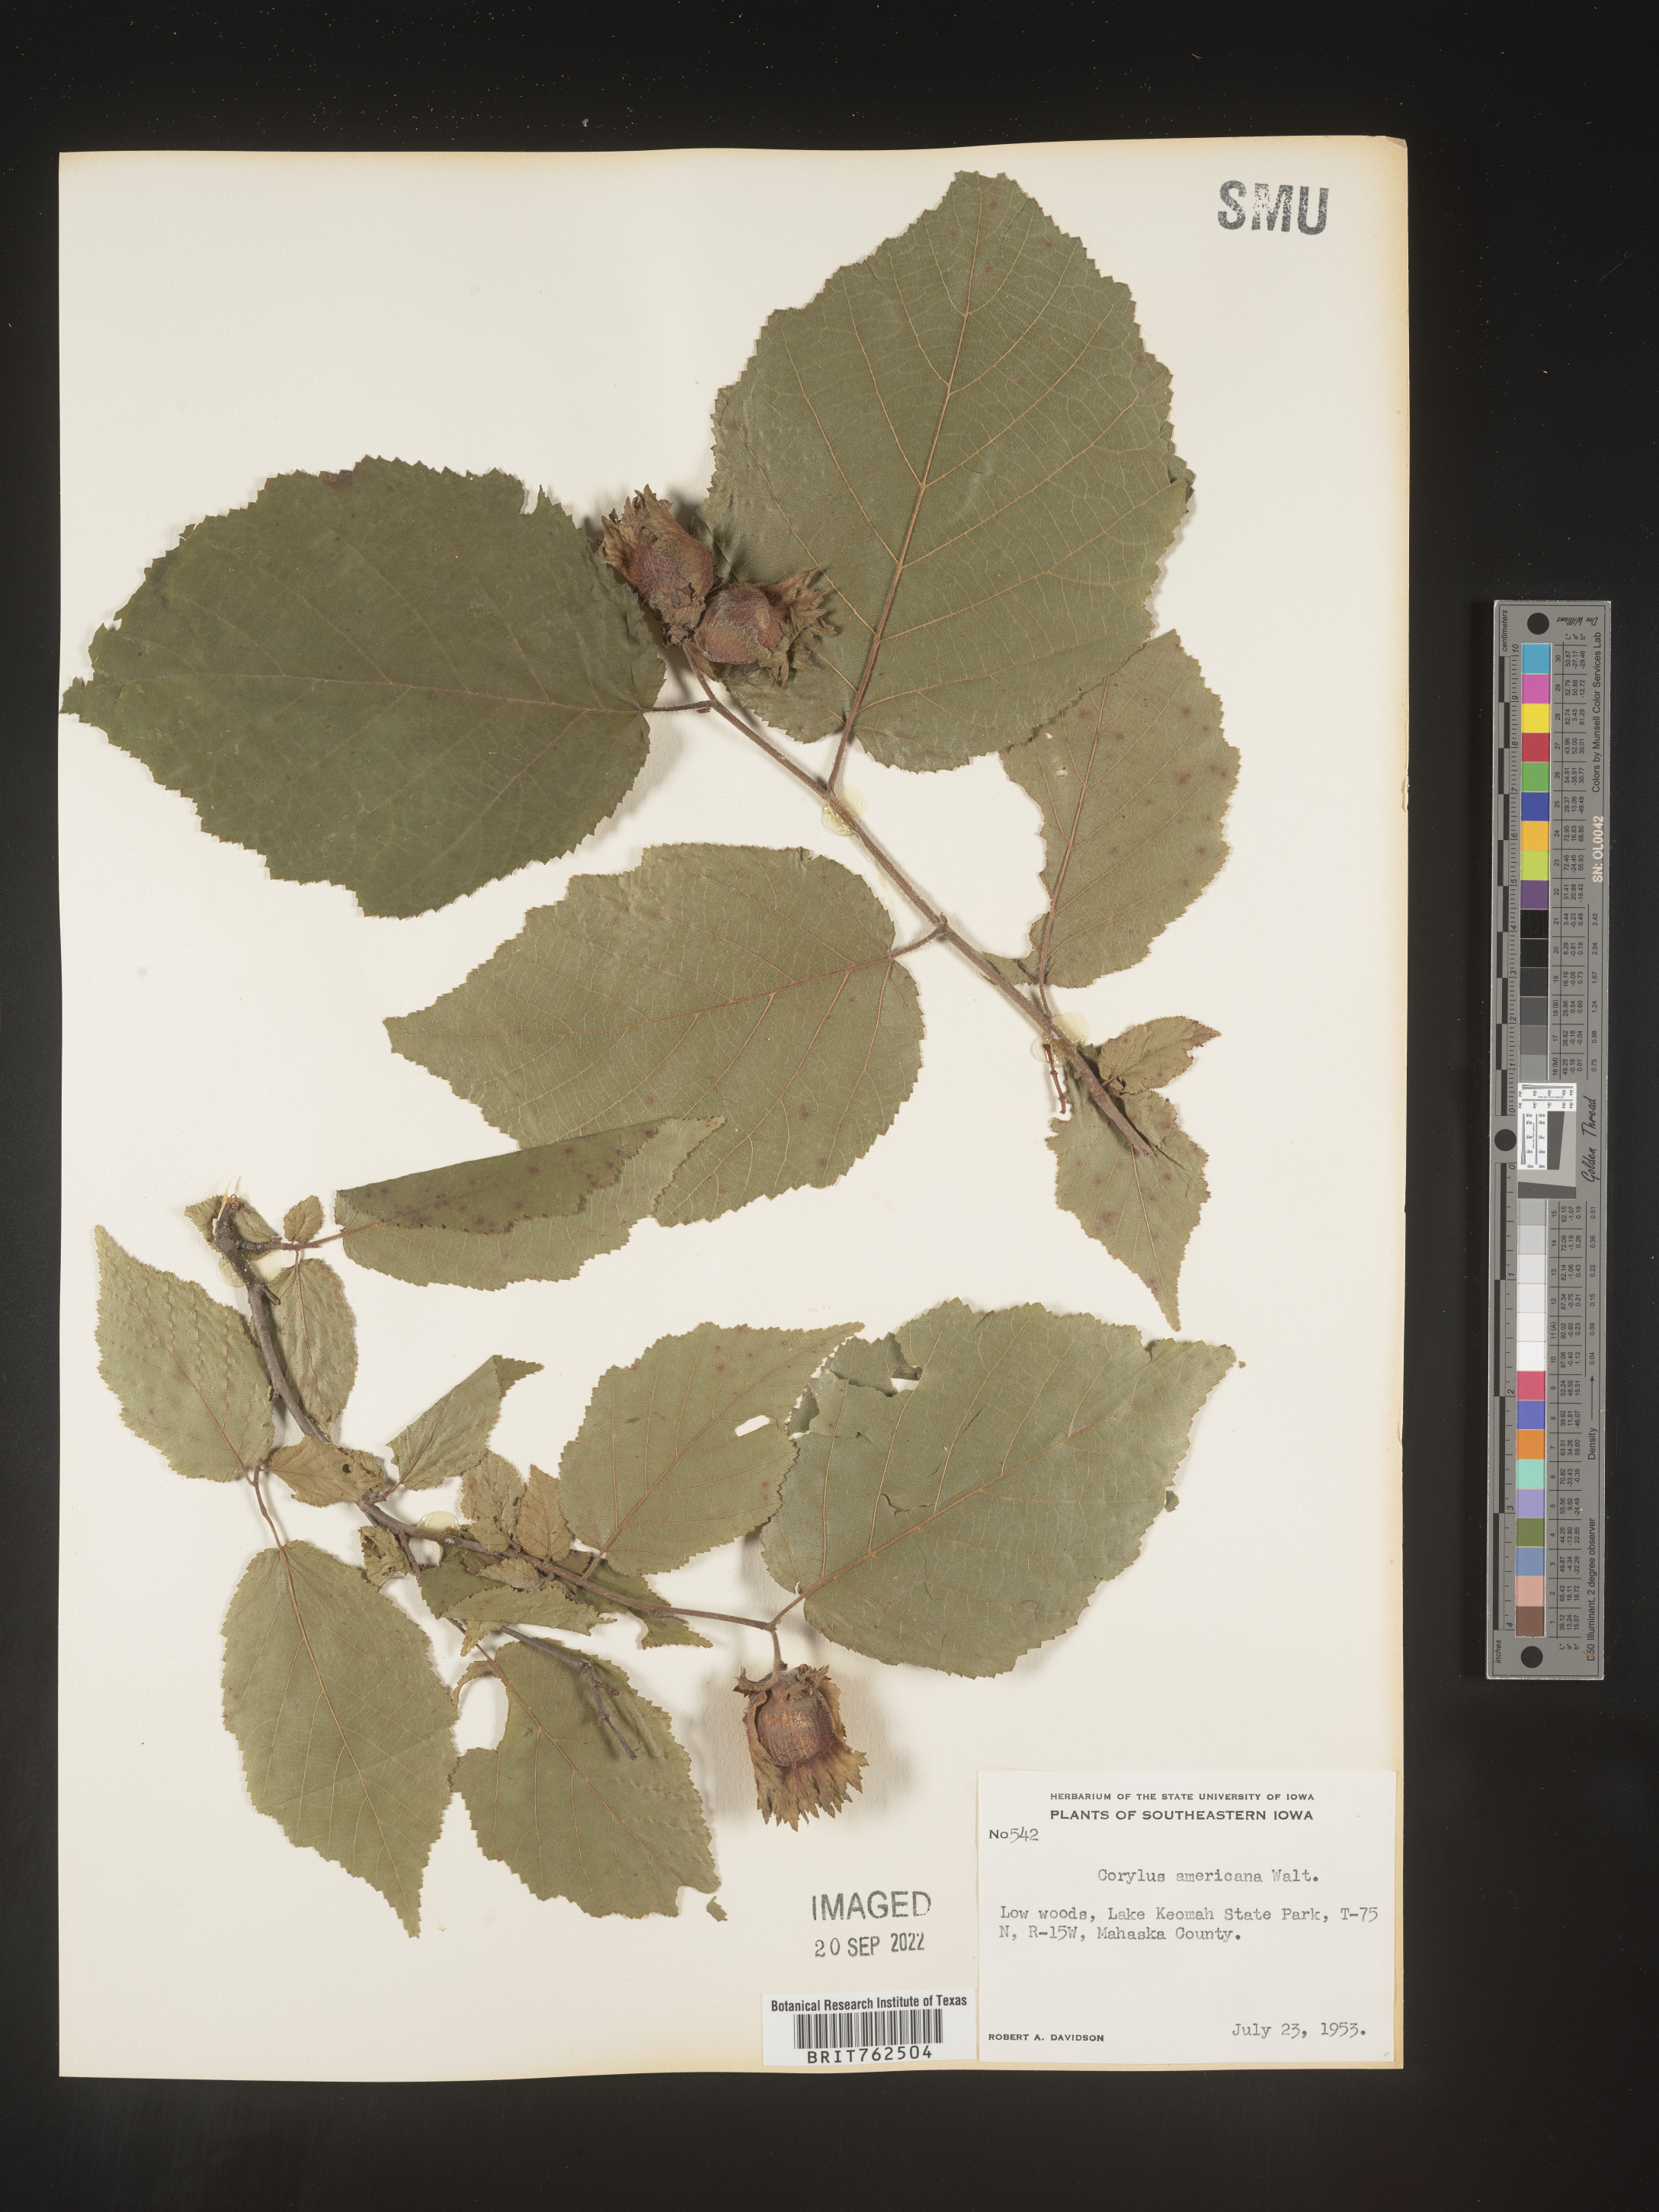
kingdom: Plantae
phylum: Tracheophyta
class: Magnoliopsida
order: Fagales
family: Betulaceae
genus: Corylus
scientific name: Corylus americana
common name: American hazel
